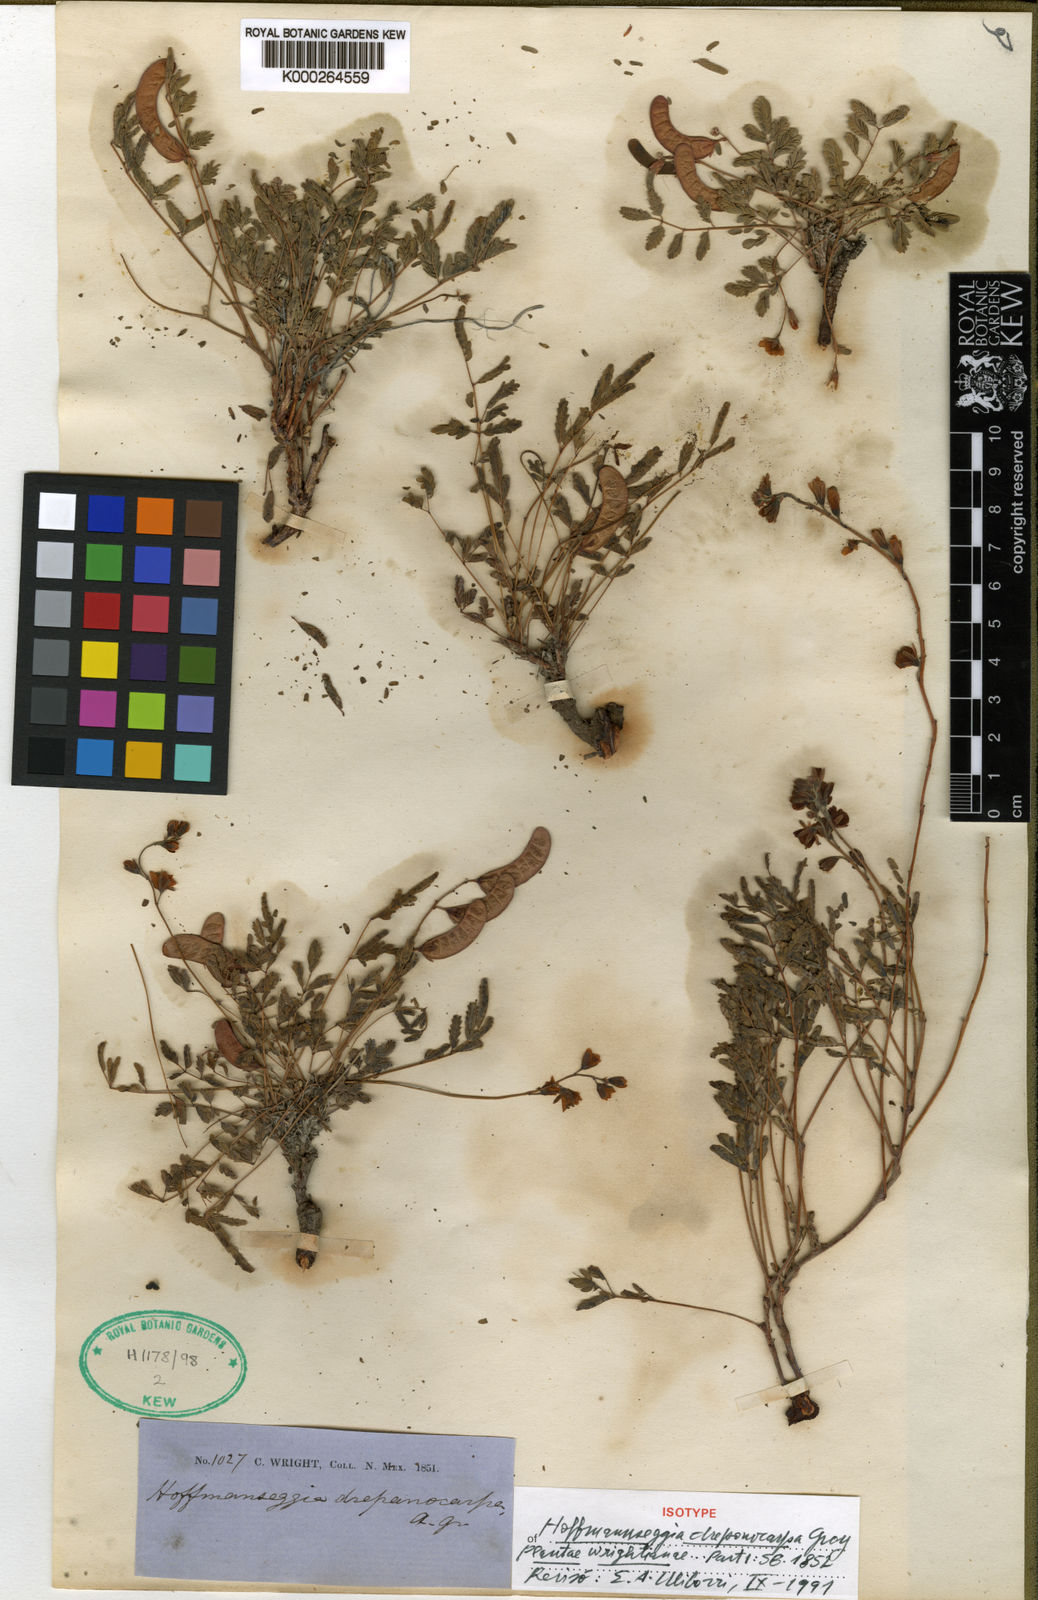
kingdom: Plantae
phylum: Tracheophyta
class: Magnoliopsida
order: Fabales
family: Fabaceae
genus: Hoffmannseggia
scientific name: Hoffmannseggia drepanocarpa
